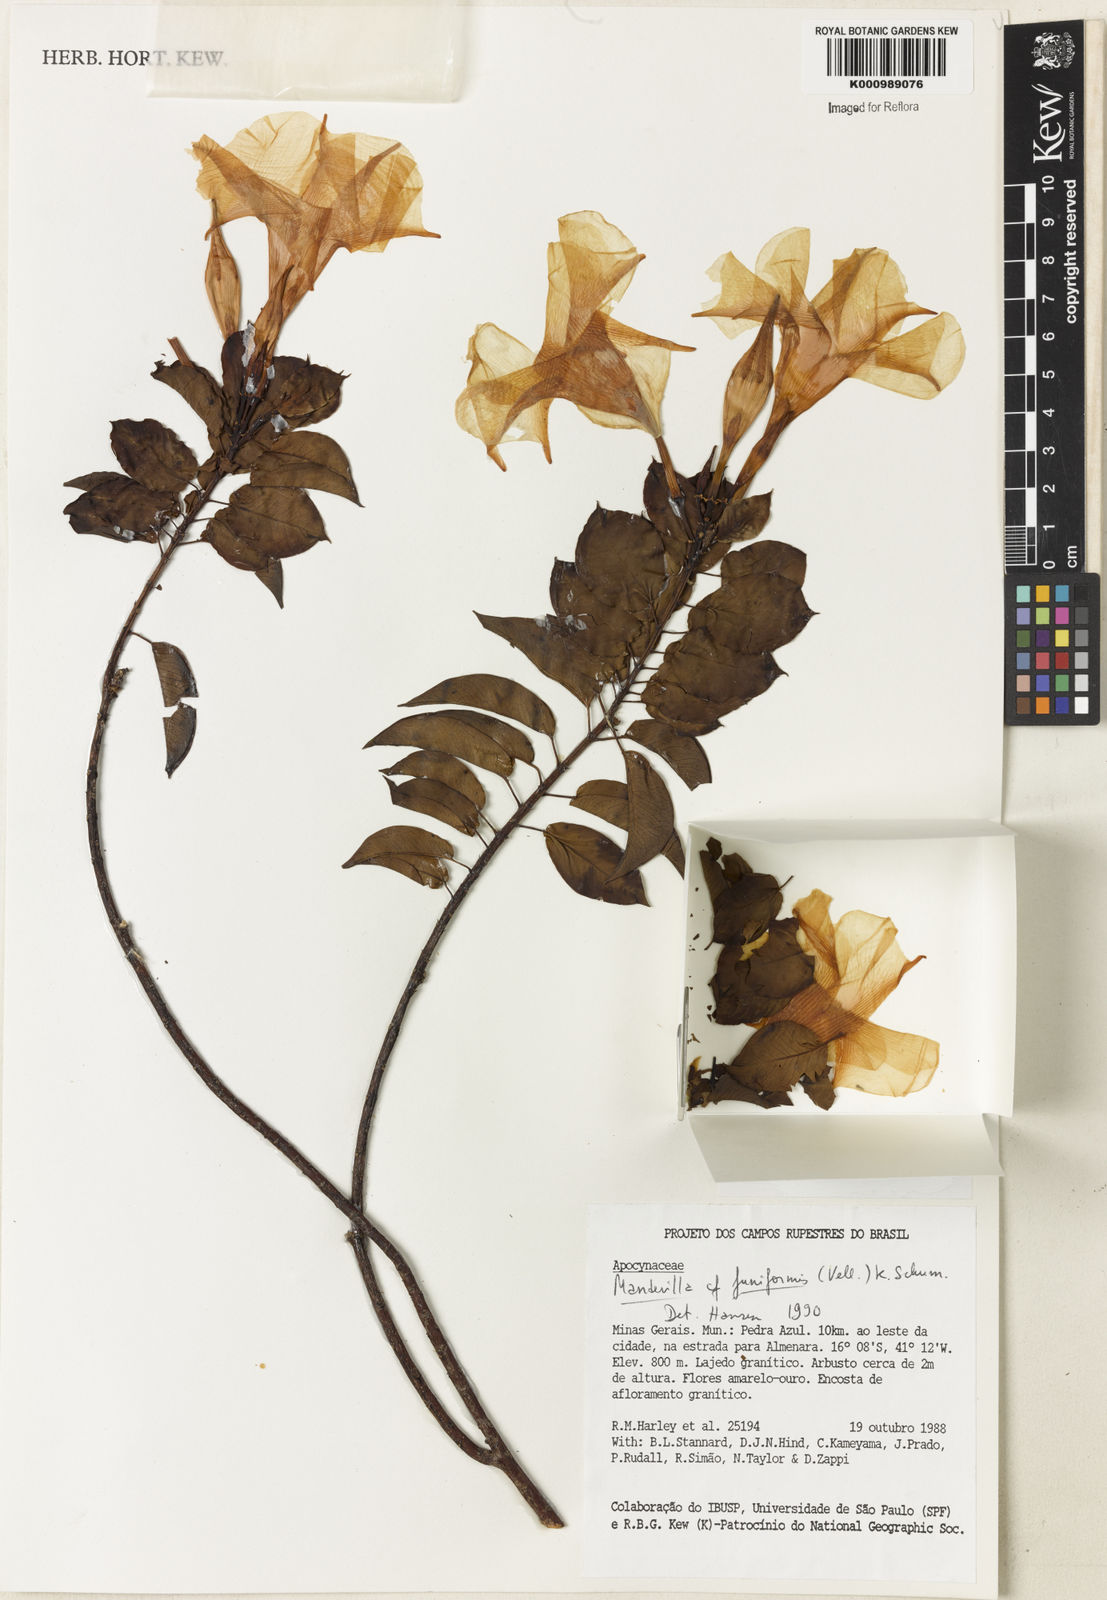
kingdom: Plantae
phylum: Tracheophyta
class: Magnoliopsida
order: Gentianales
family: Apocynaceae
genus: Mandevilla
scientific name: Mandevilla funiformis
